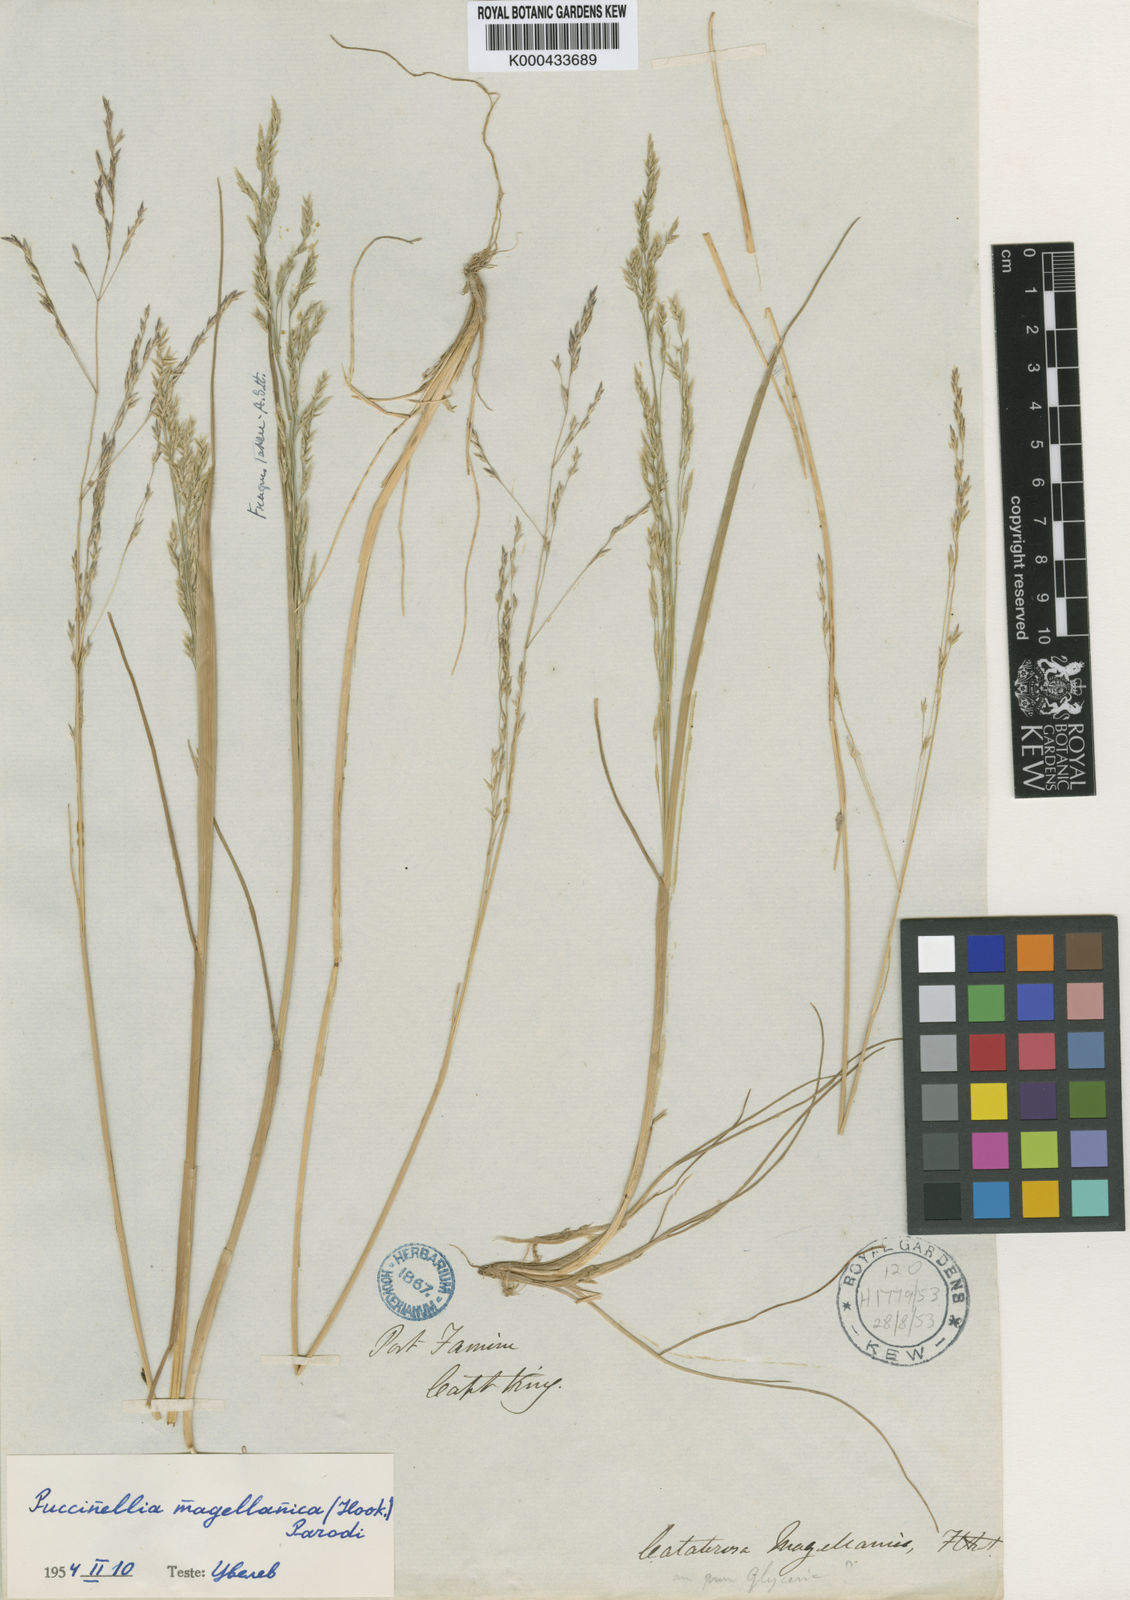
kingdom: Plantae
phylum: Tracheophyta
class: Liliopsida
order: Poales
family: Poaceae
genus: Puccinellia
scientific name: Puccinellia magellanica
